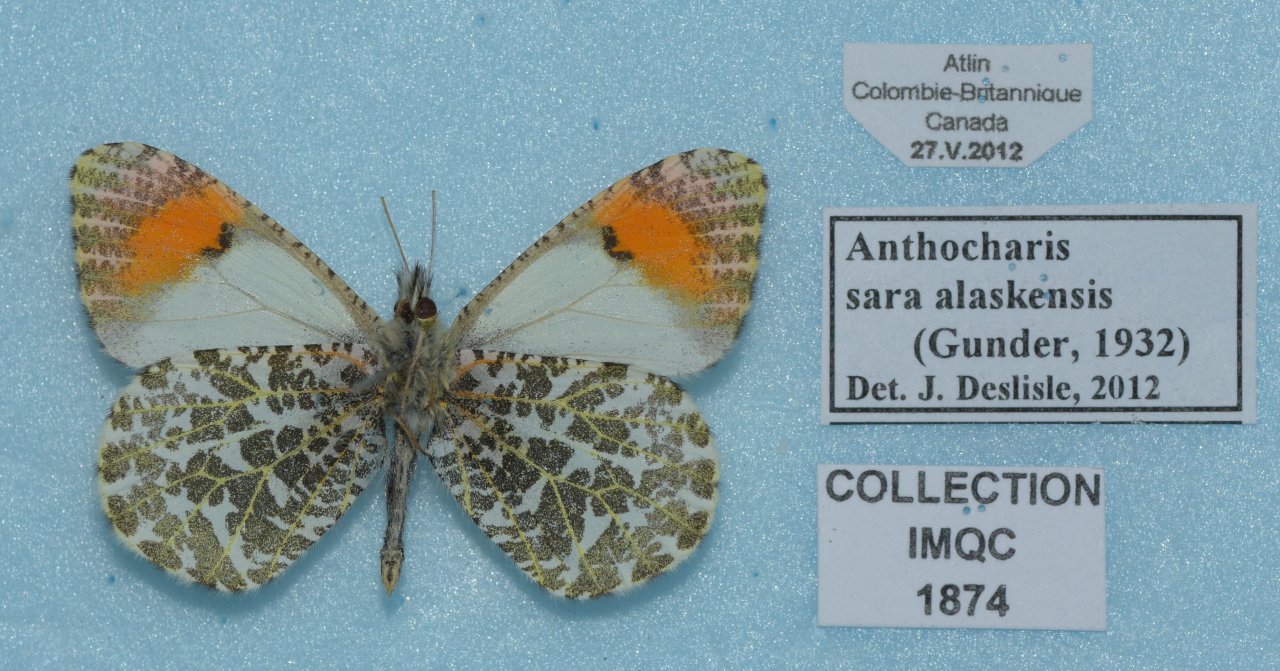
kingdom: Animalia
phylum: Arthropoda
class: Insecta
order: Lepidoptera
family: Pieridae
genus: Anthocharis
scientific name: Anthocharis sara
